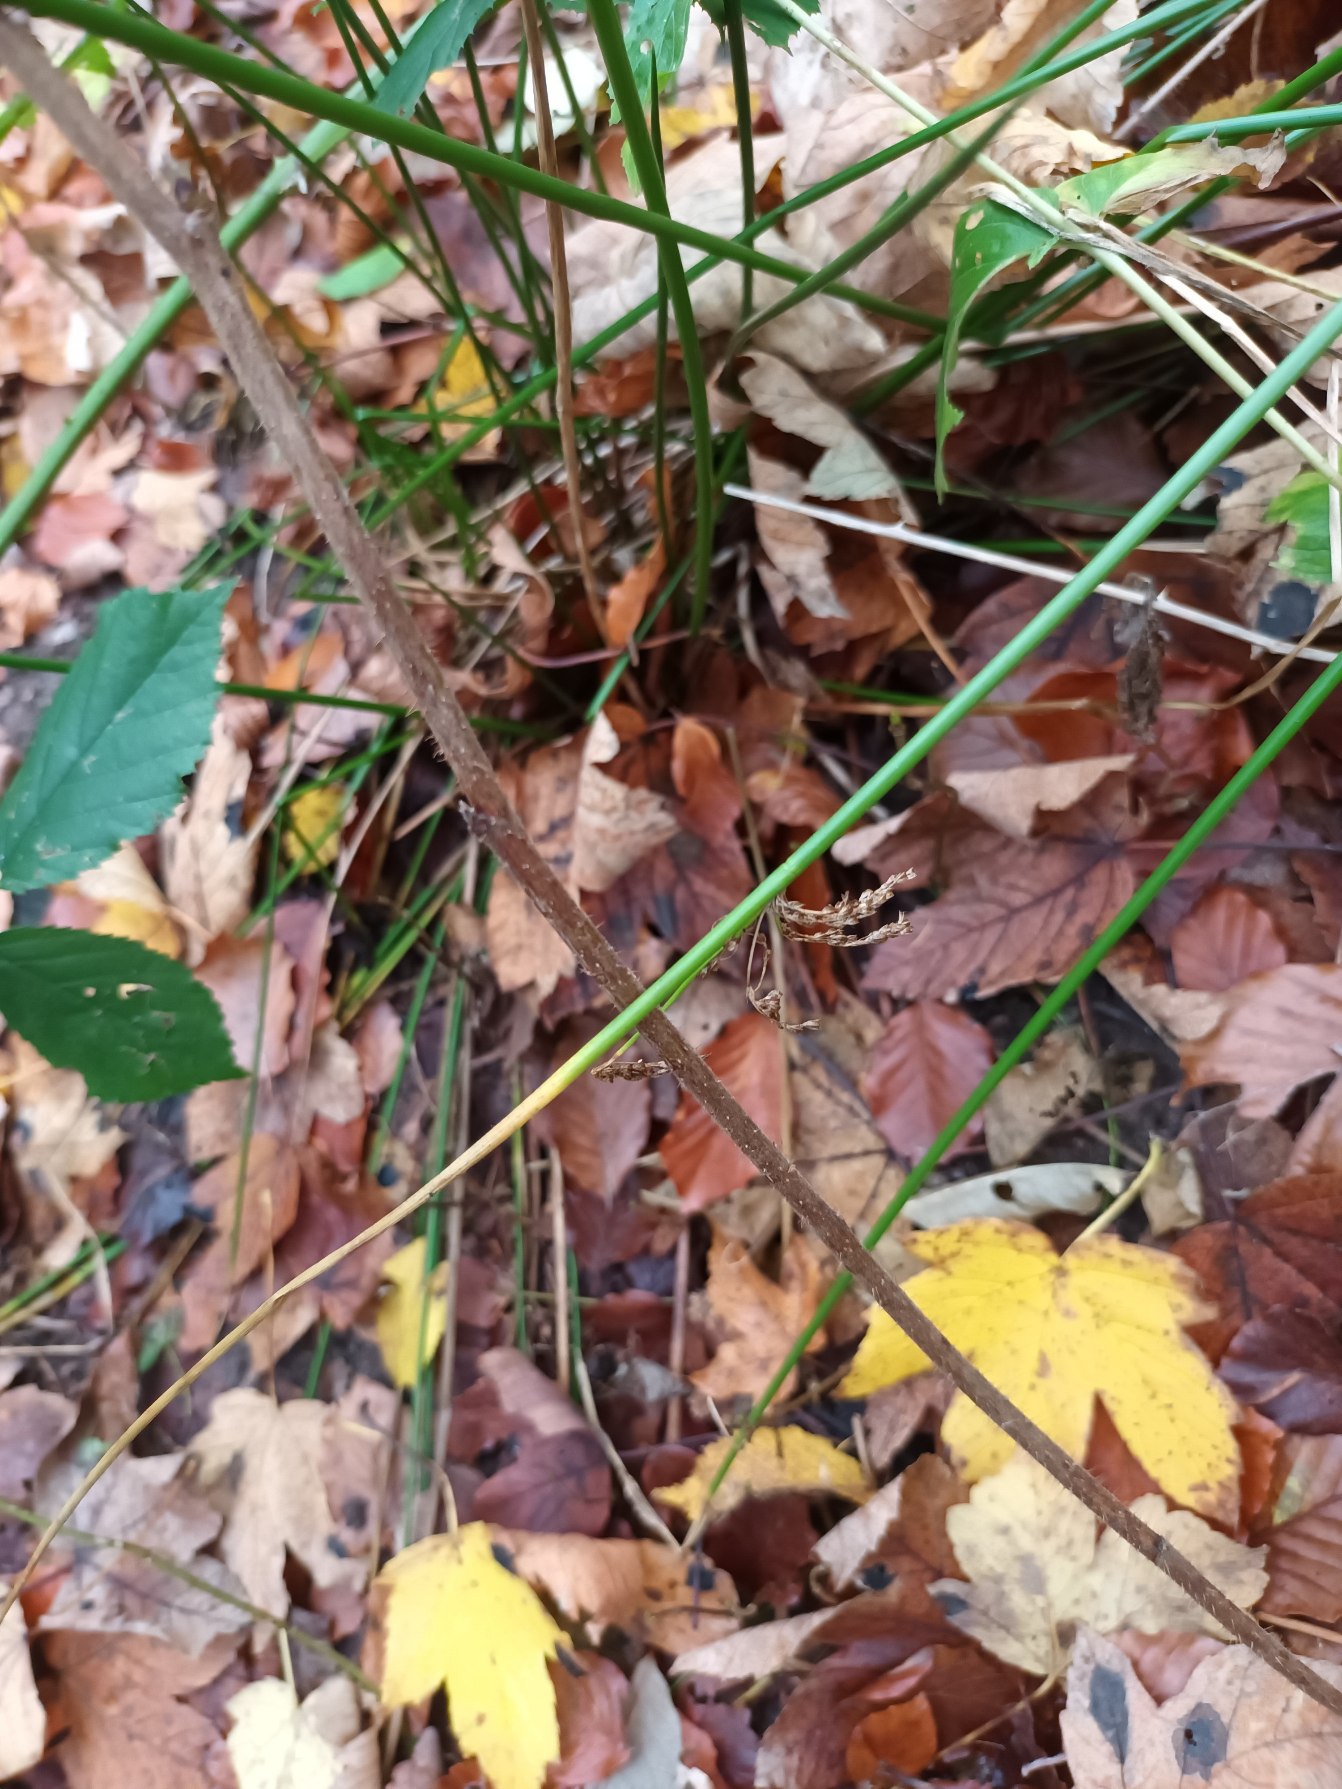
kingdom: Plantae
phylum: Tracheophyta
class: Liliopsida
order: Poales
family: Juncaceae
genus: Juncus
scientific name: Juncus effusus
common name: Lyse-siv
